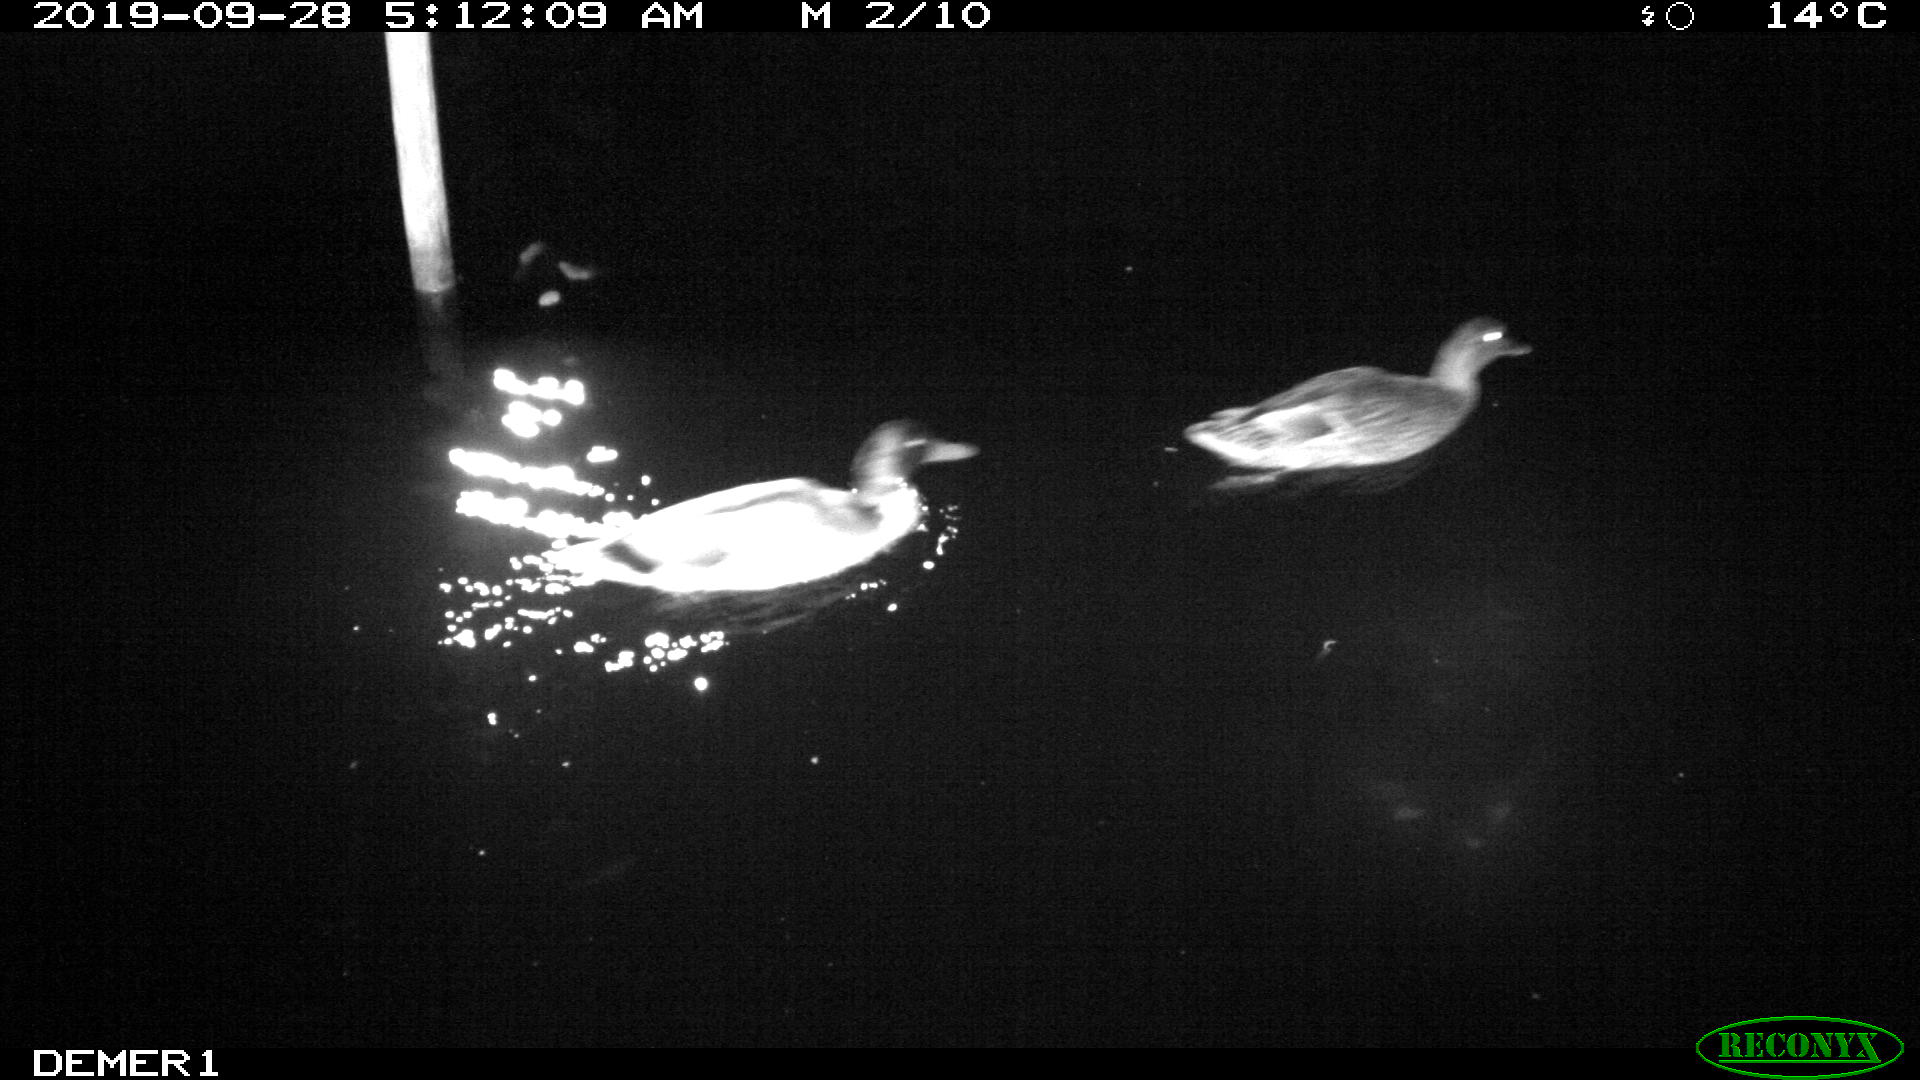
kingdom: Animalia
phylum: Chordata
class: Aves
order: Anseriformes
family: Anatidae
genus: Anas
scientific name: Anas platyrhynchos
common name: Mallard
